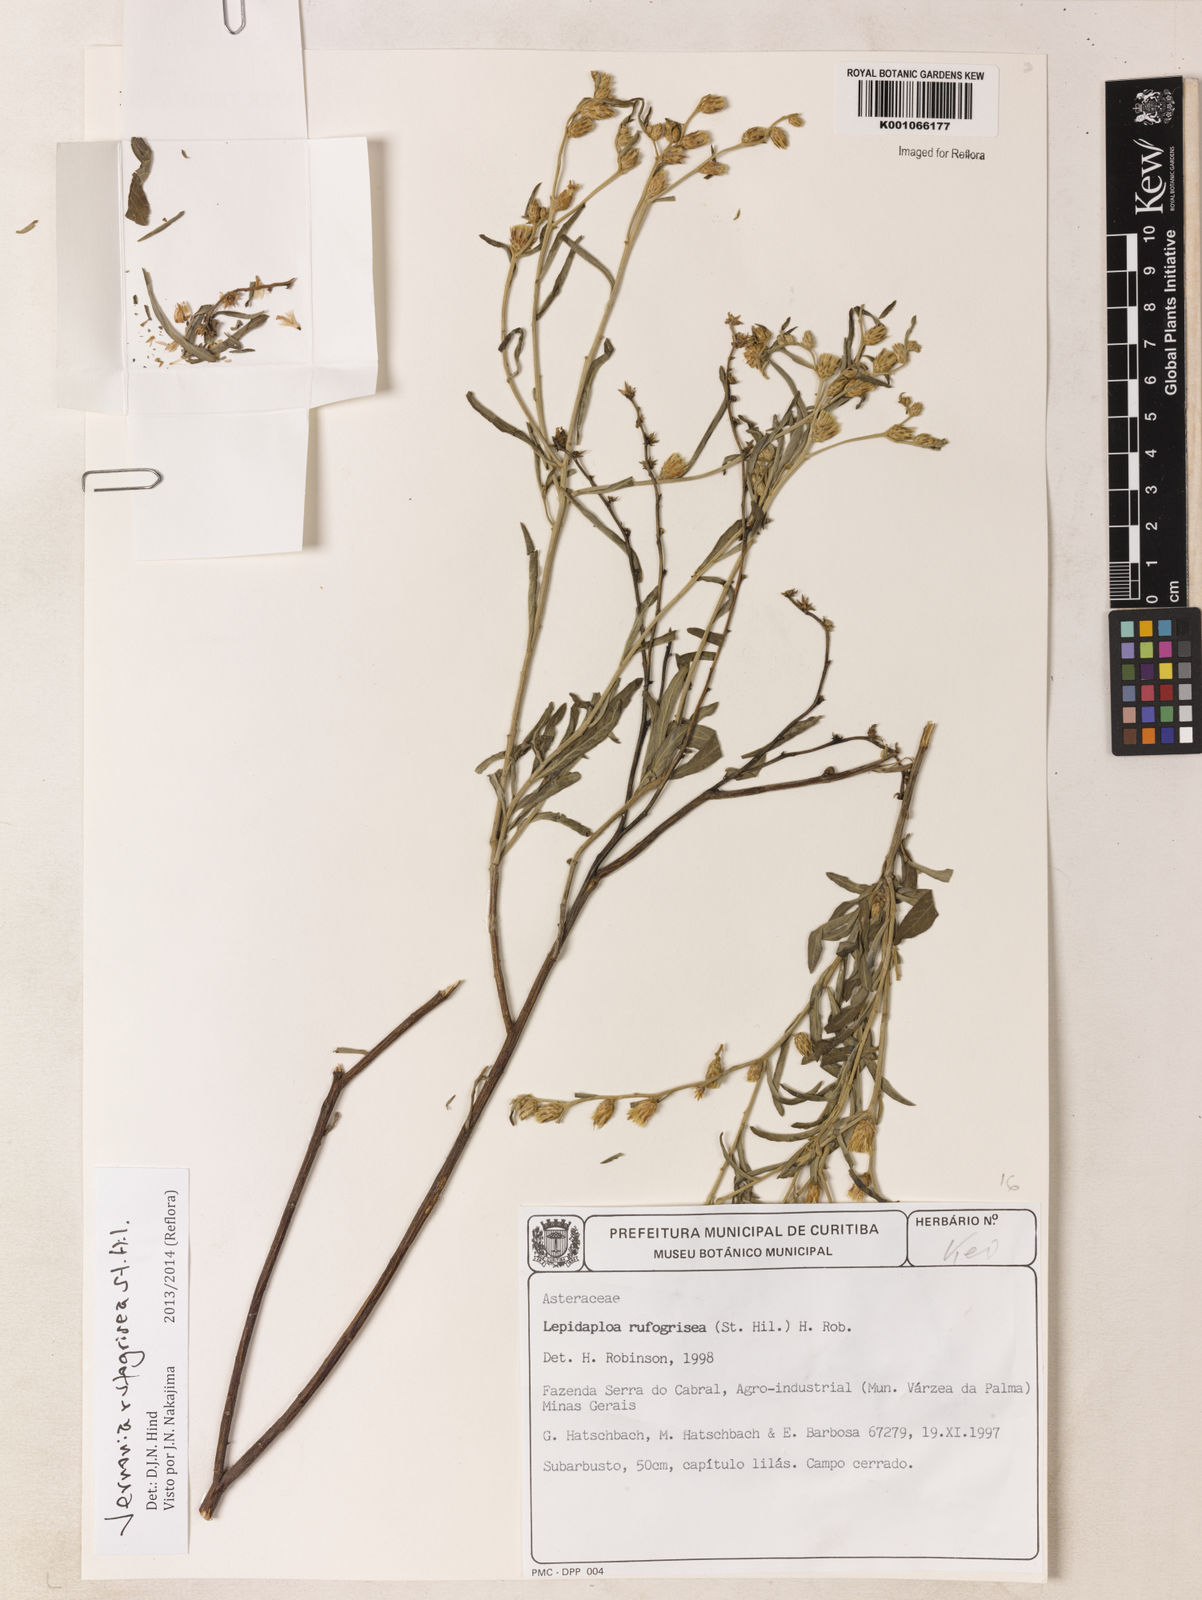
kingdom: Plantae
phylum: Tracheophyta
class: Magnoliopsida
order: Asterales
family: Asteraceae
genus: Lepidaploa
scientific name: Lepidaploa rufogrisea
